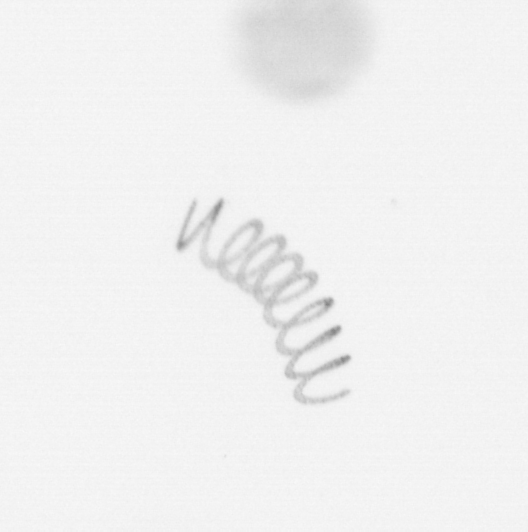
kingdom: Chromista
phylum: Ochrophyta
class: Bacillariophyceae
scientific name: Bacillariophyceae
